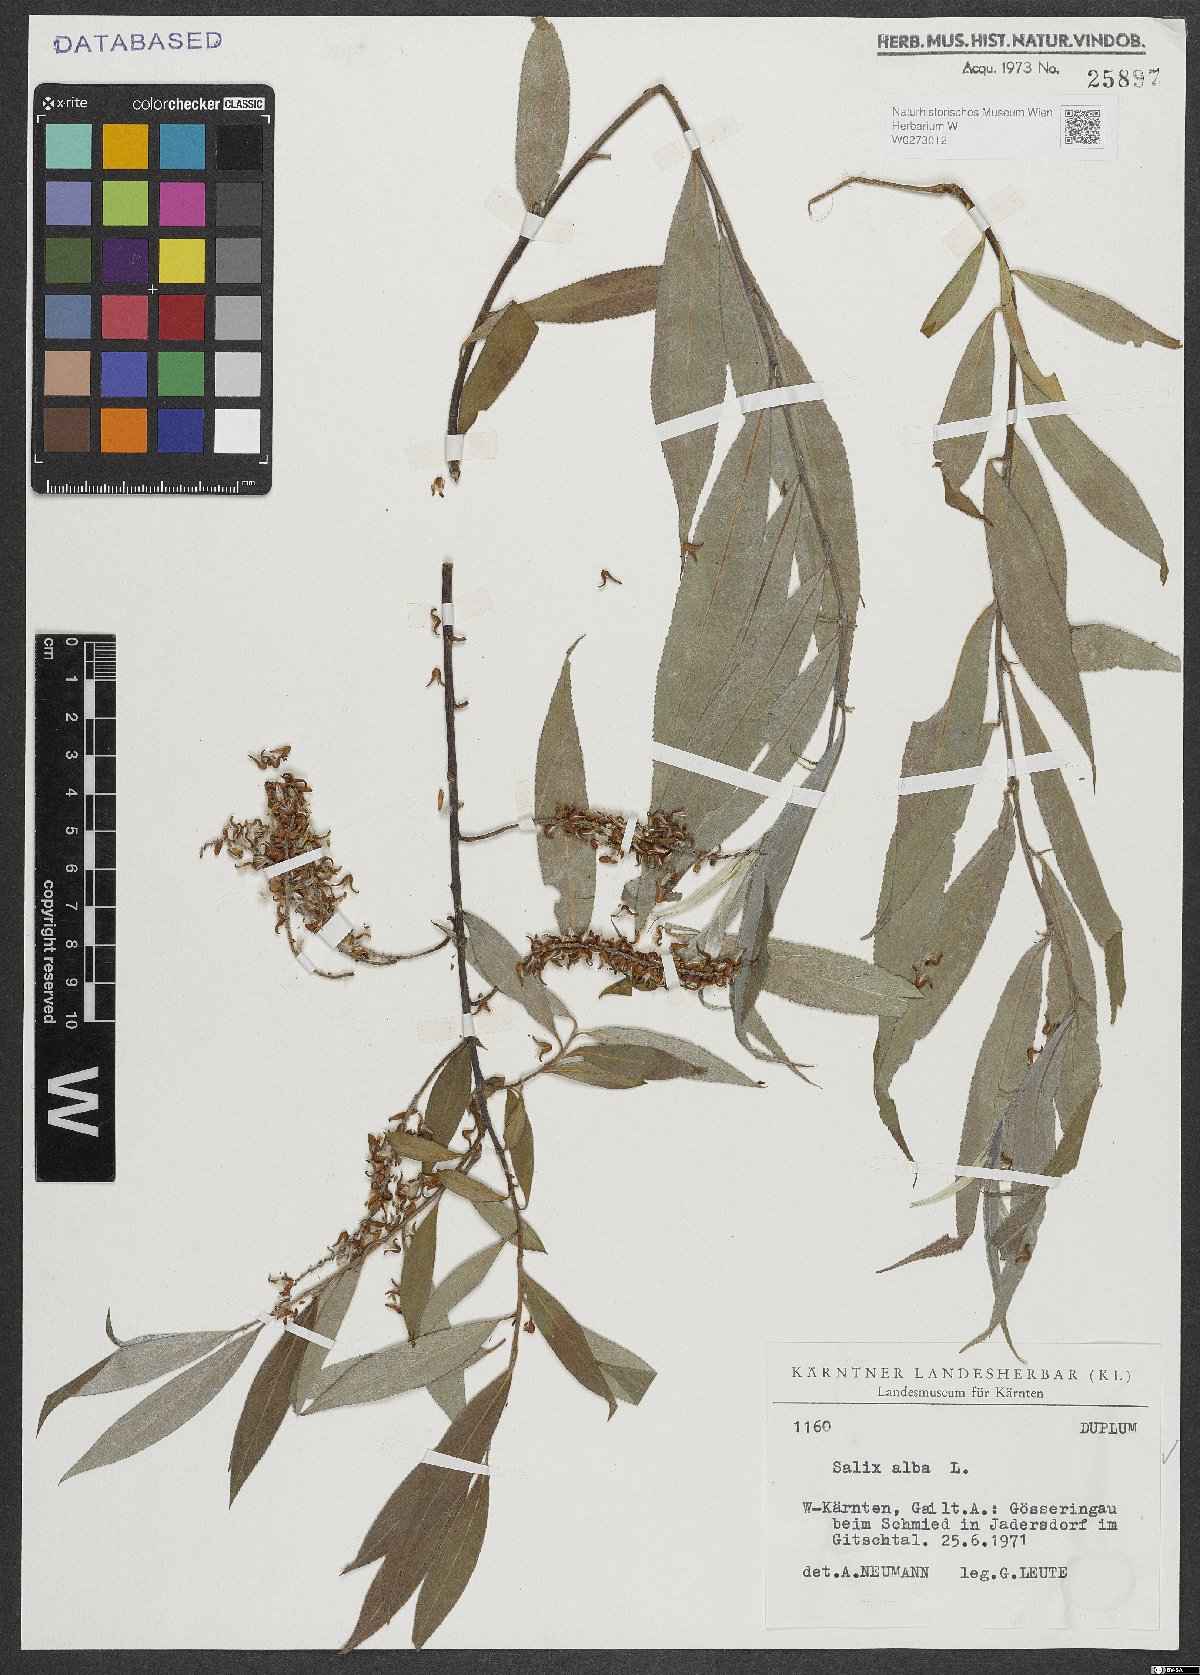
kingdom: Plantae
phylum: Tracheophyta
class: Magnoliopsida
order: Malpighiales
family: Salicaceae
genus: Salix
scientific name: Salix alba
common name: White willow
